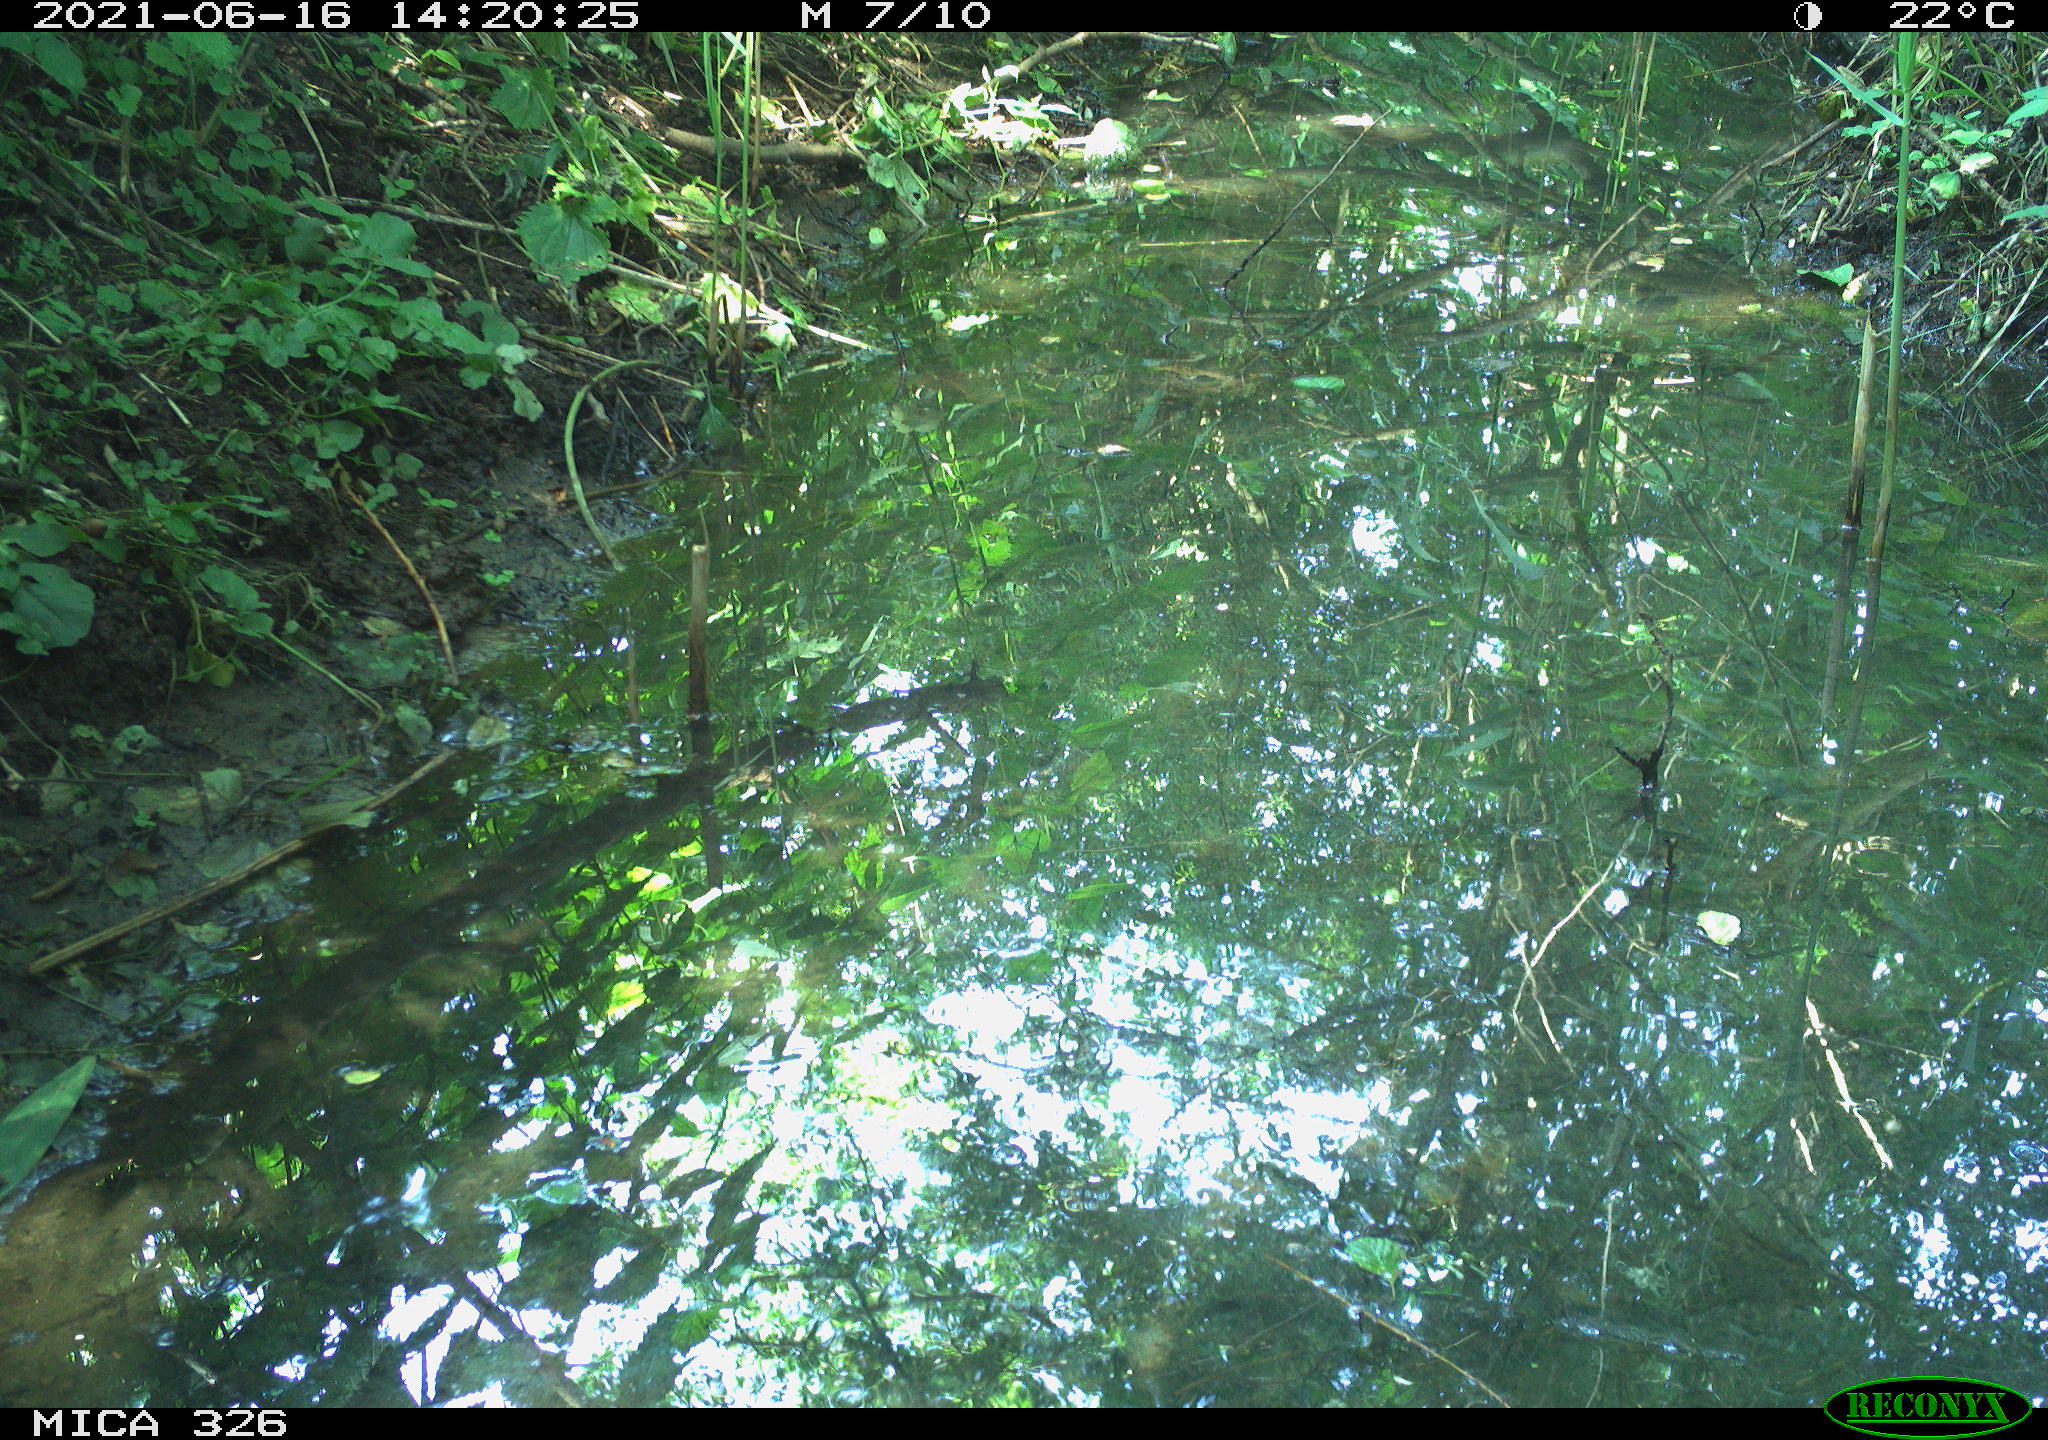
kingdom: Animalia
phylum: Chordata
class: Aves
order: Passeriformes
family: Turdidae
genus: Turdus
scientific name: Turdus merula
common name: Common blackbird
